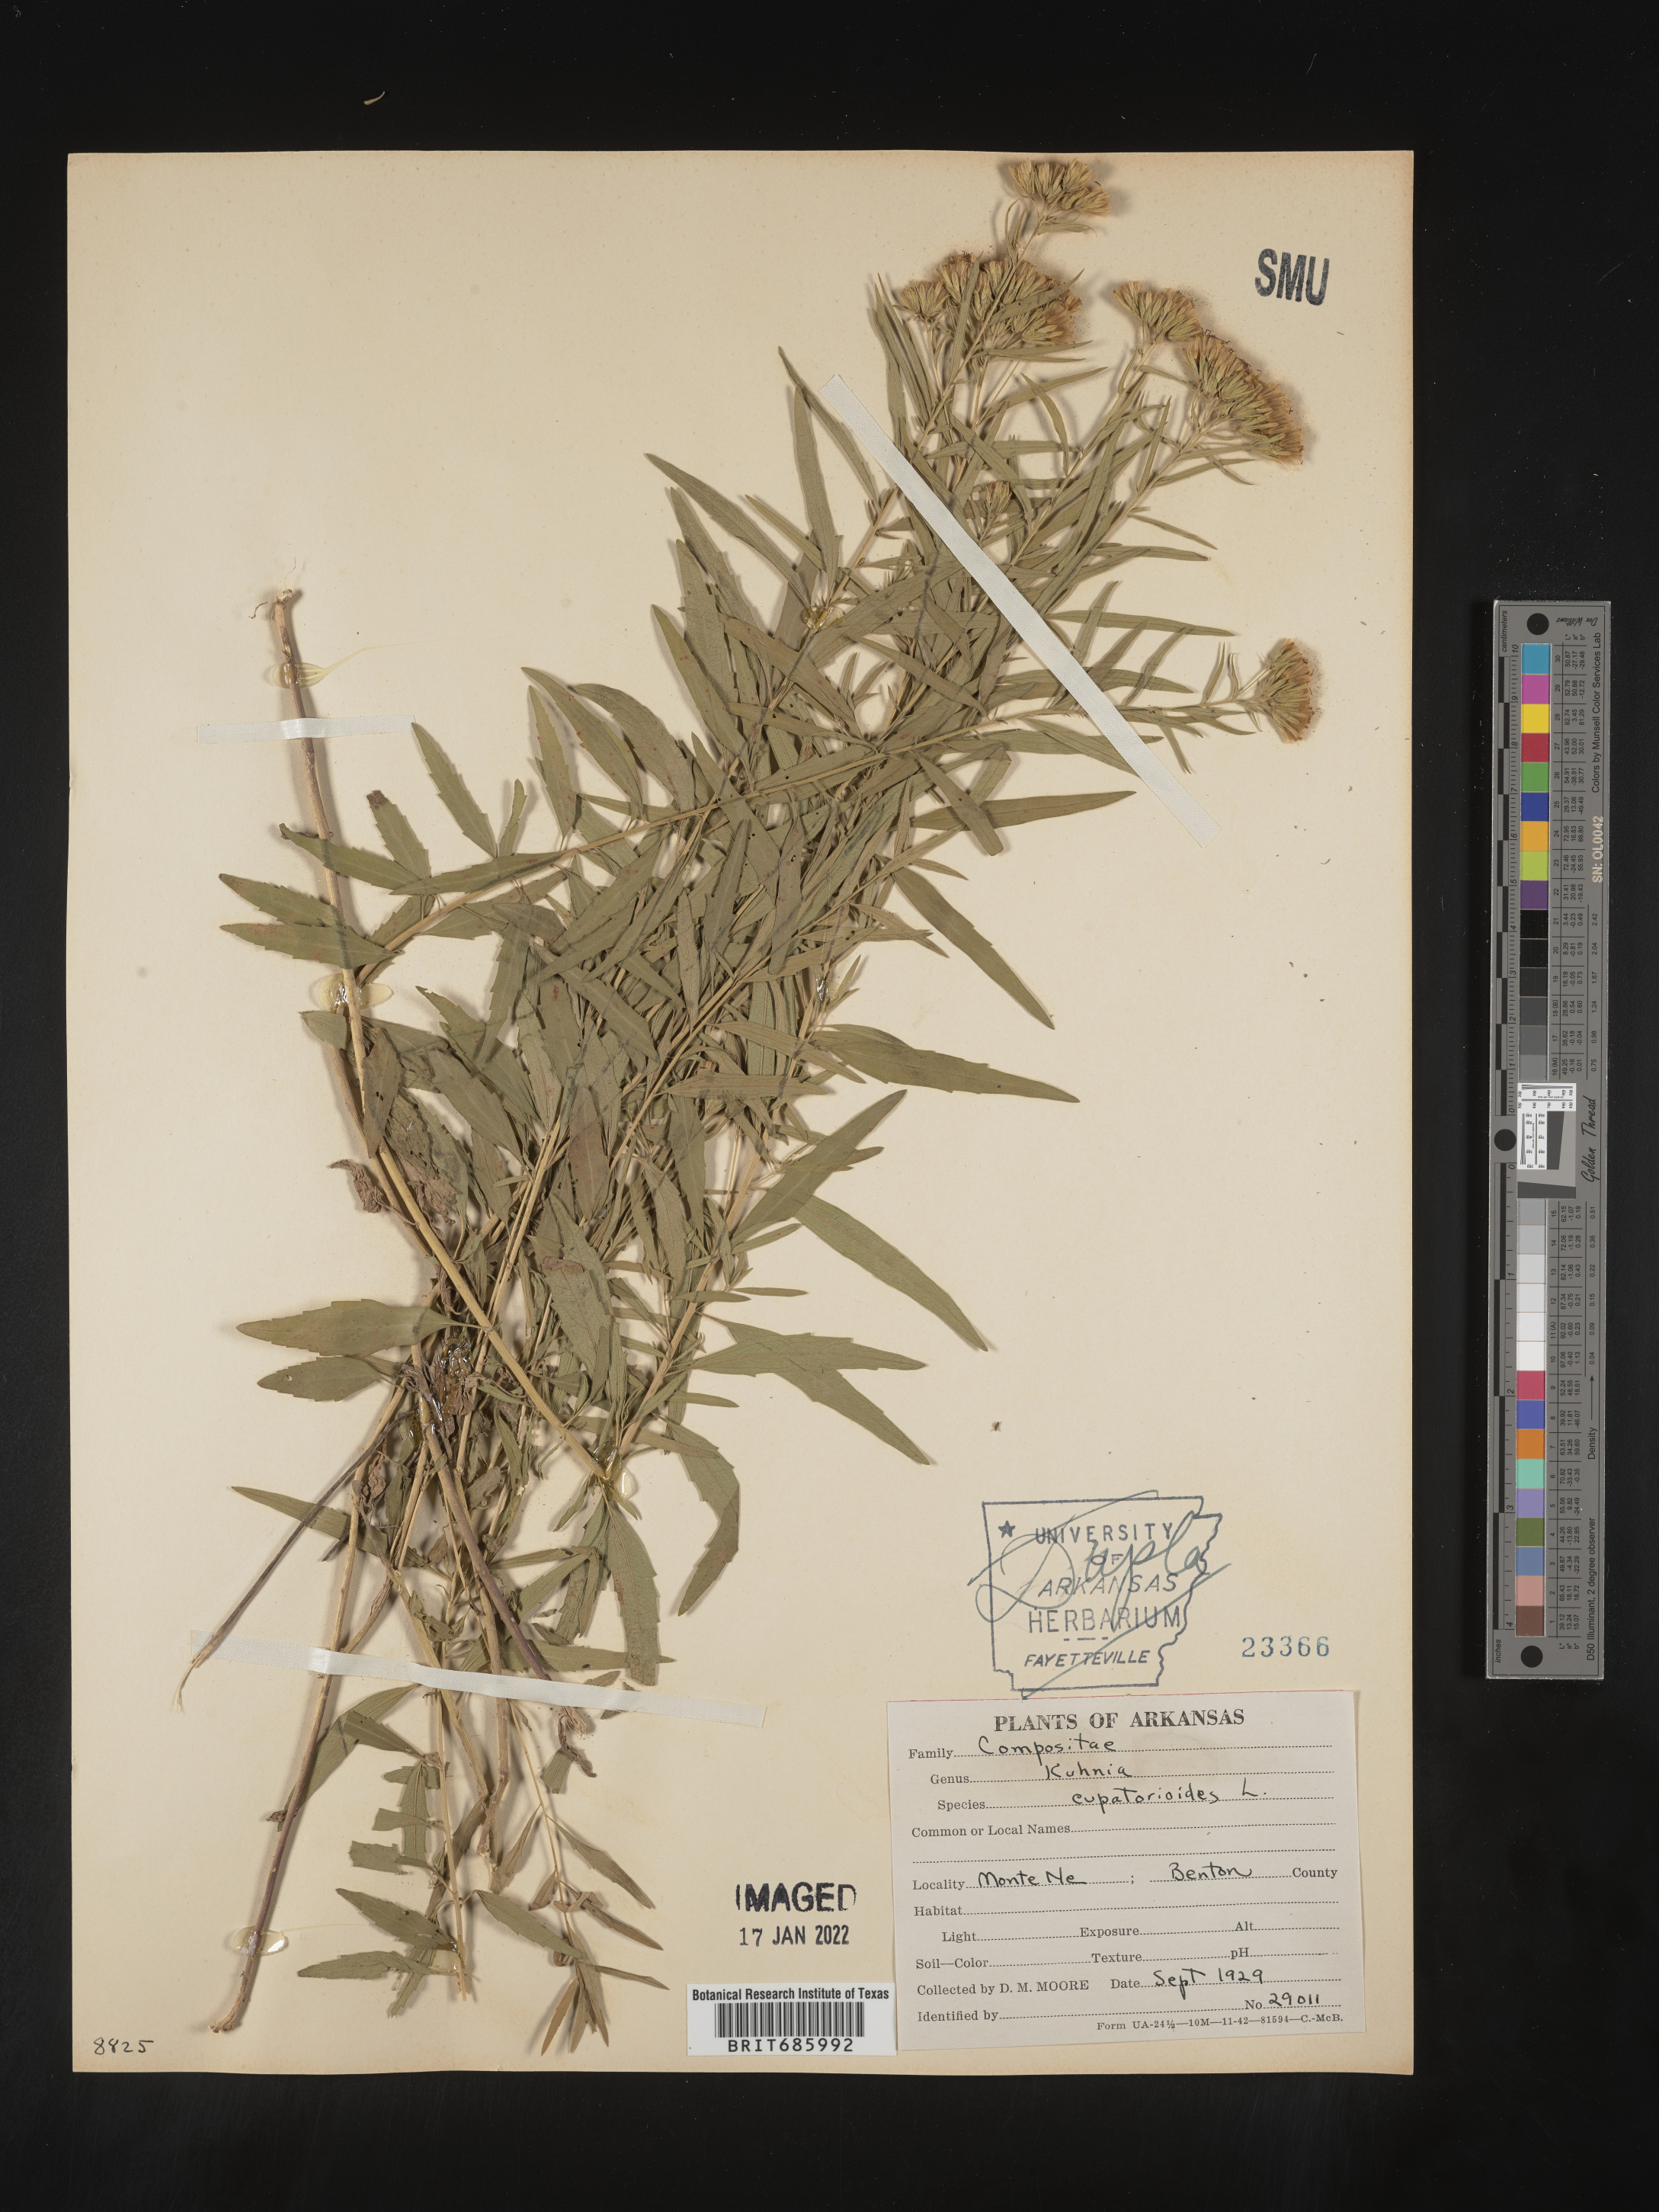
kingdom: Plantae
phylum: Tracheophyta
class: Magnoliopsida
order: Asterales
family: Asteraceae
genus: Brickellia
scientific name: Brickellia eupatorioides
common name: False boneset
